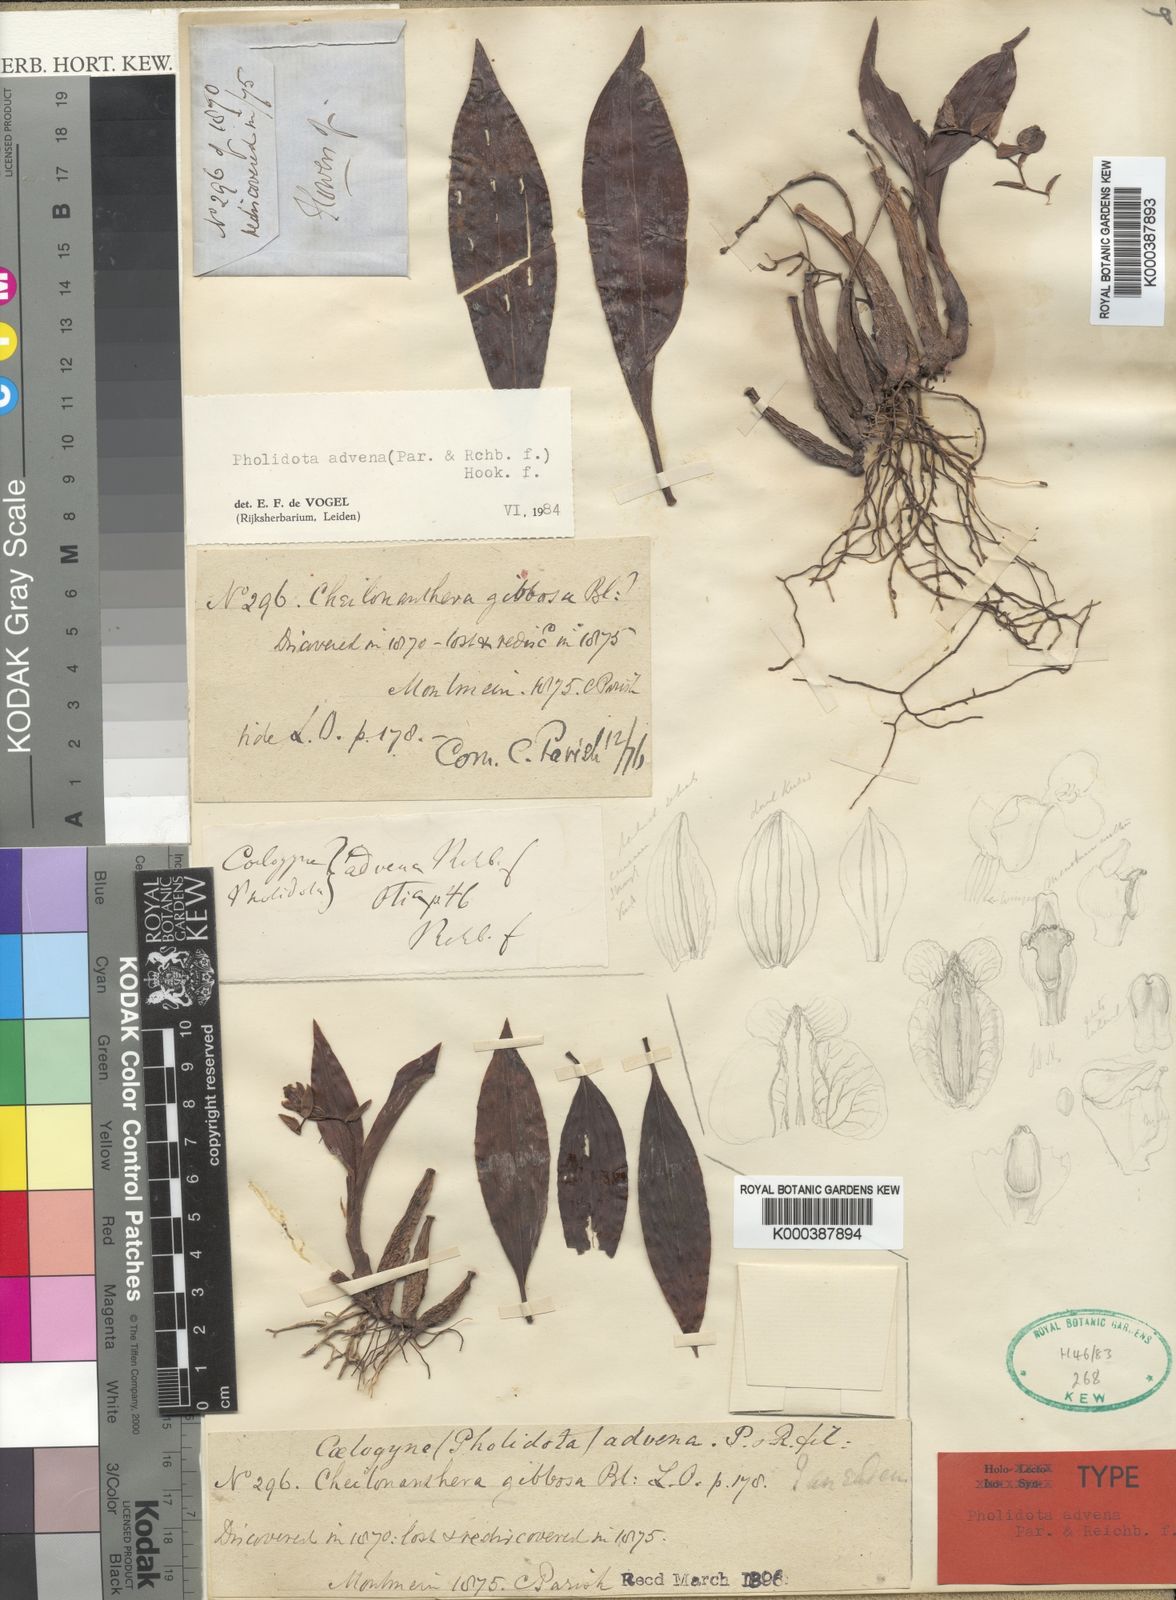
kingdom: Plantae
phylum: Tracheophyta
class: Liliopsida
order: Asparagales
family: Orchidaceae
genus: Coelogyne
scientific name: Coelogyne advena
